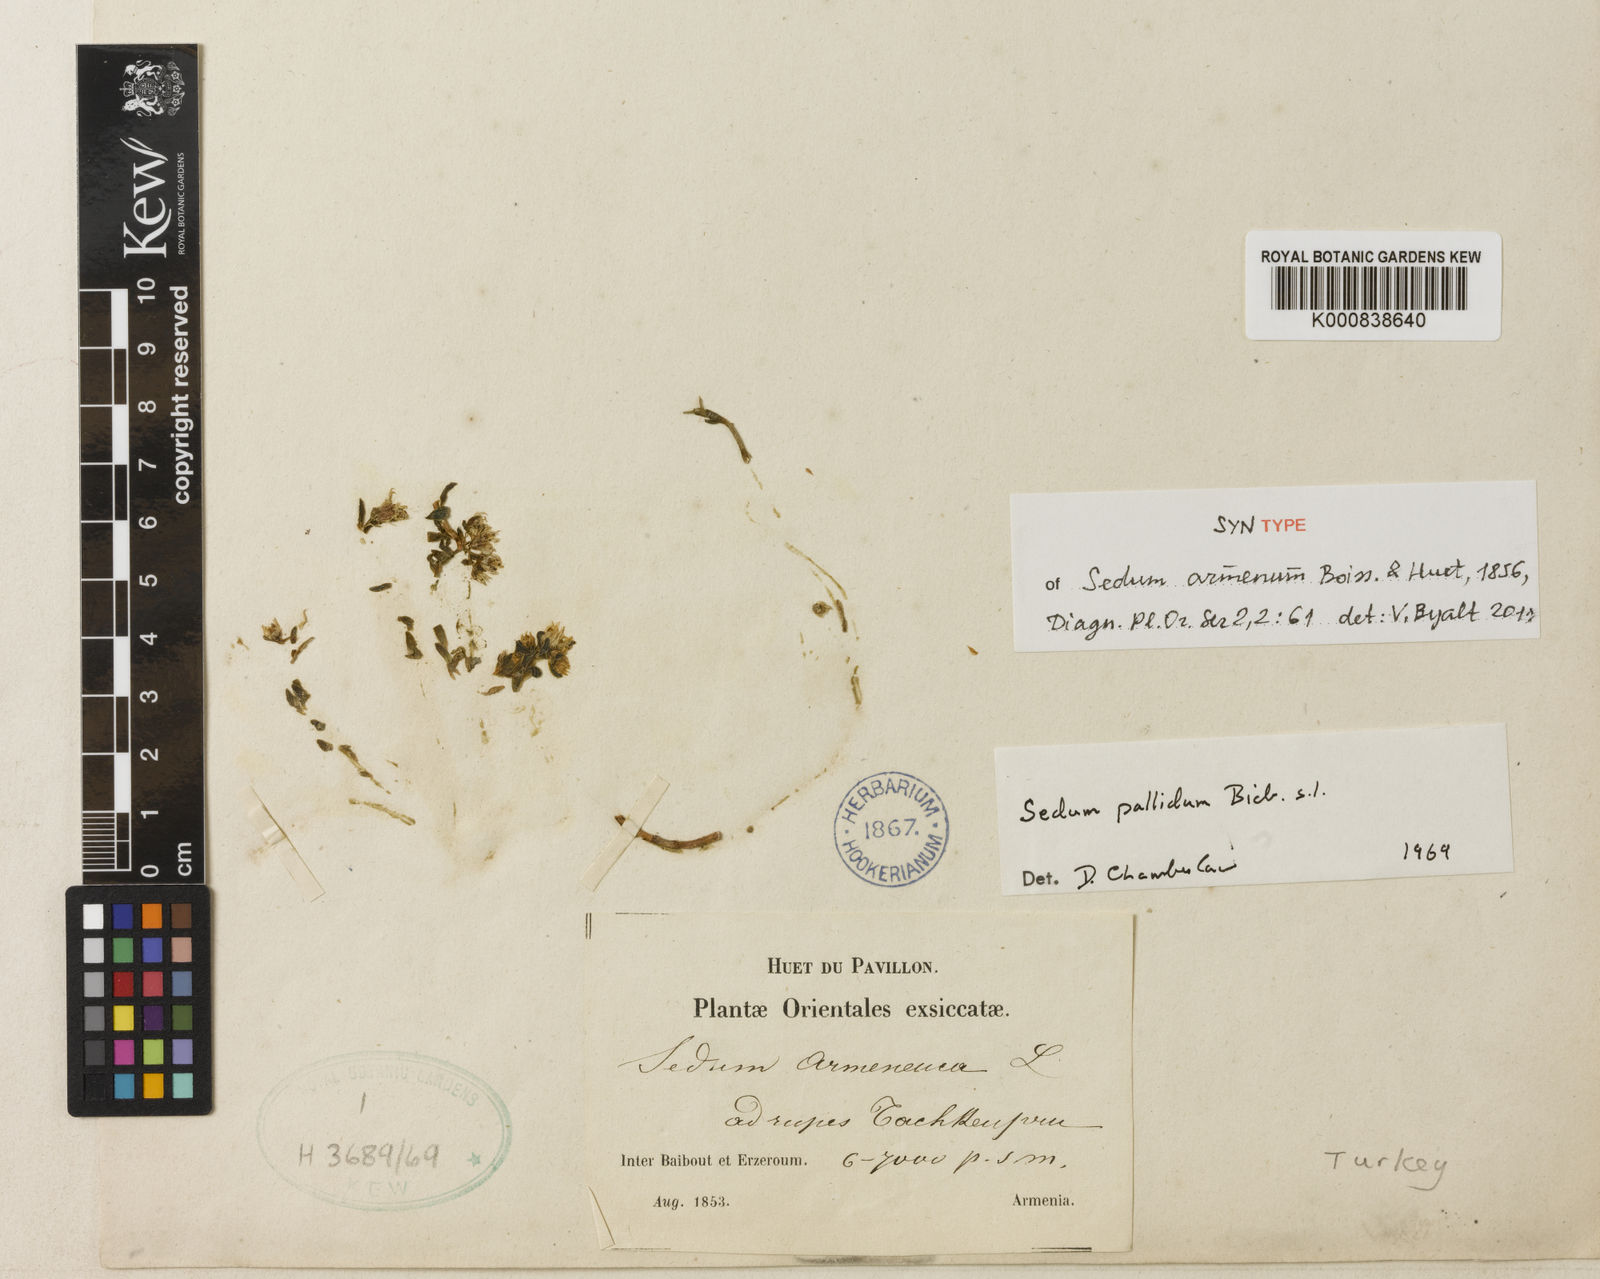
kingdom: Plantae
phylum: Tracheophyta
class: Magnoliopsida
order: Saxifragales
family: Crassulaceae
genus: Sedum
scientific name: Sedum hispanicum
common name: Spanish stonecrop
